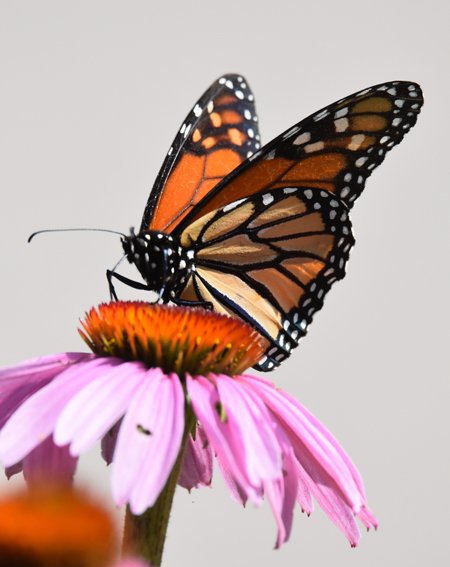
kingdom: Animalia
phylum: Arthropoda
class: Insecta
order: Lepidoptera
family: Nymphalidae
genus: Danaus
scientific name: Danaus plexippus
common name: Monarch
